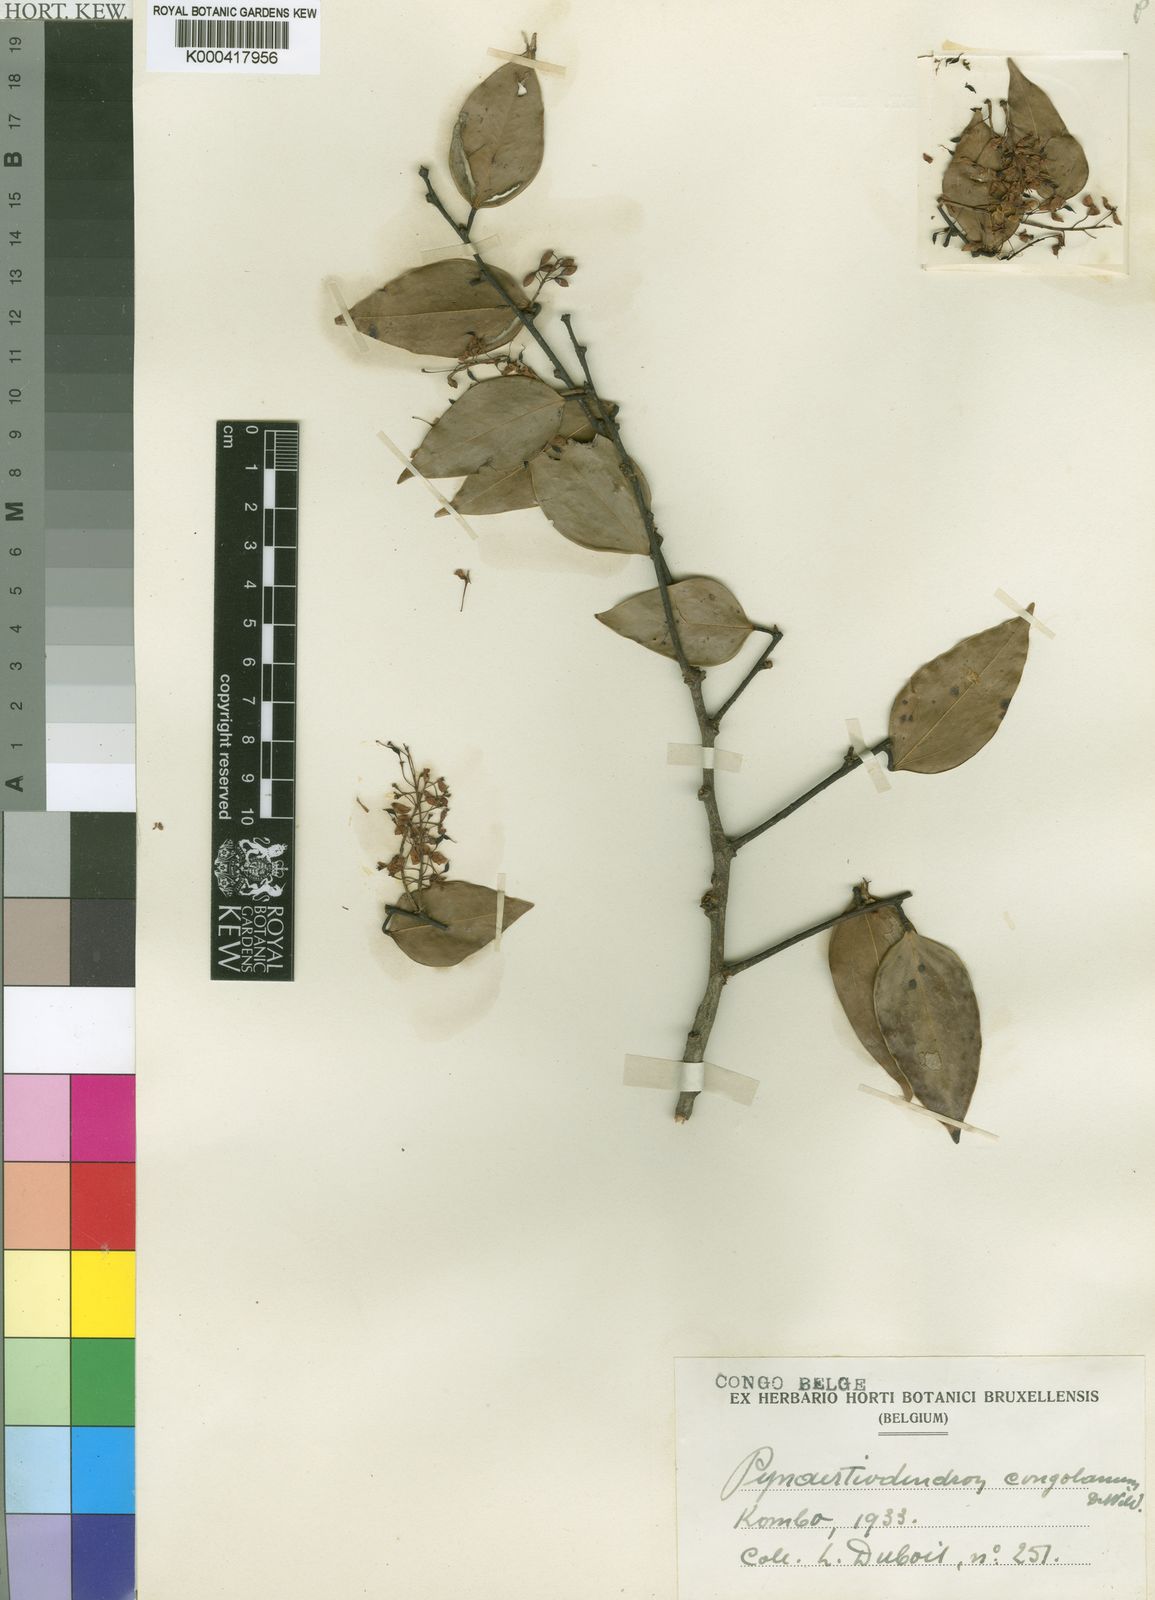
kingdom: Plantae
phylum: Tracheophyta
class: Magnoliopsida
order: Fabales
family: Fabaceae
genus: Cryptosepalum
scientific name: Cryptosepalum
